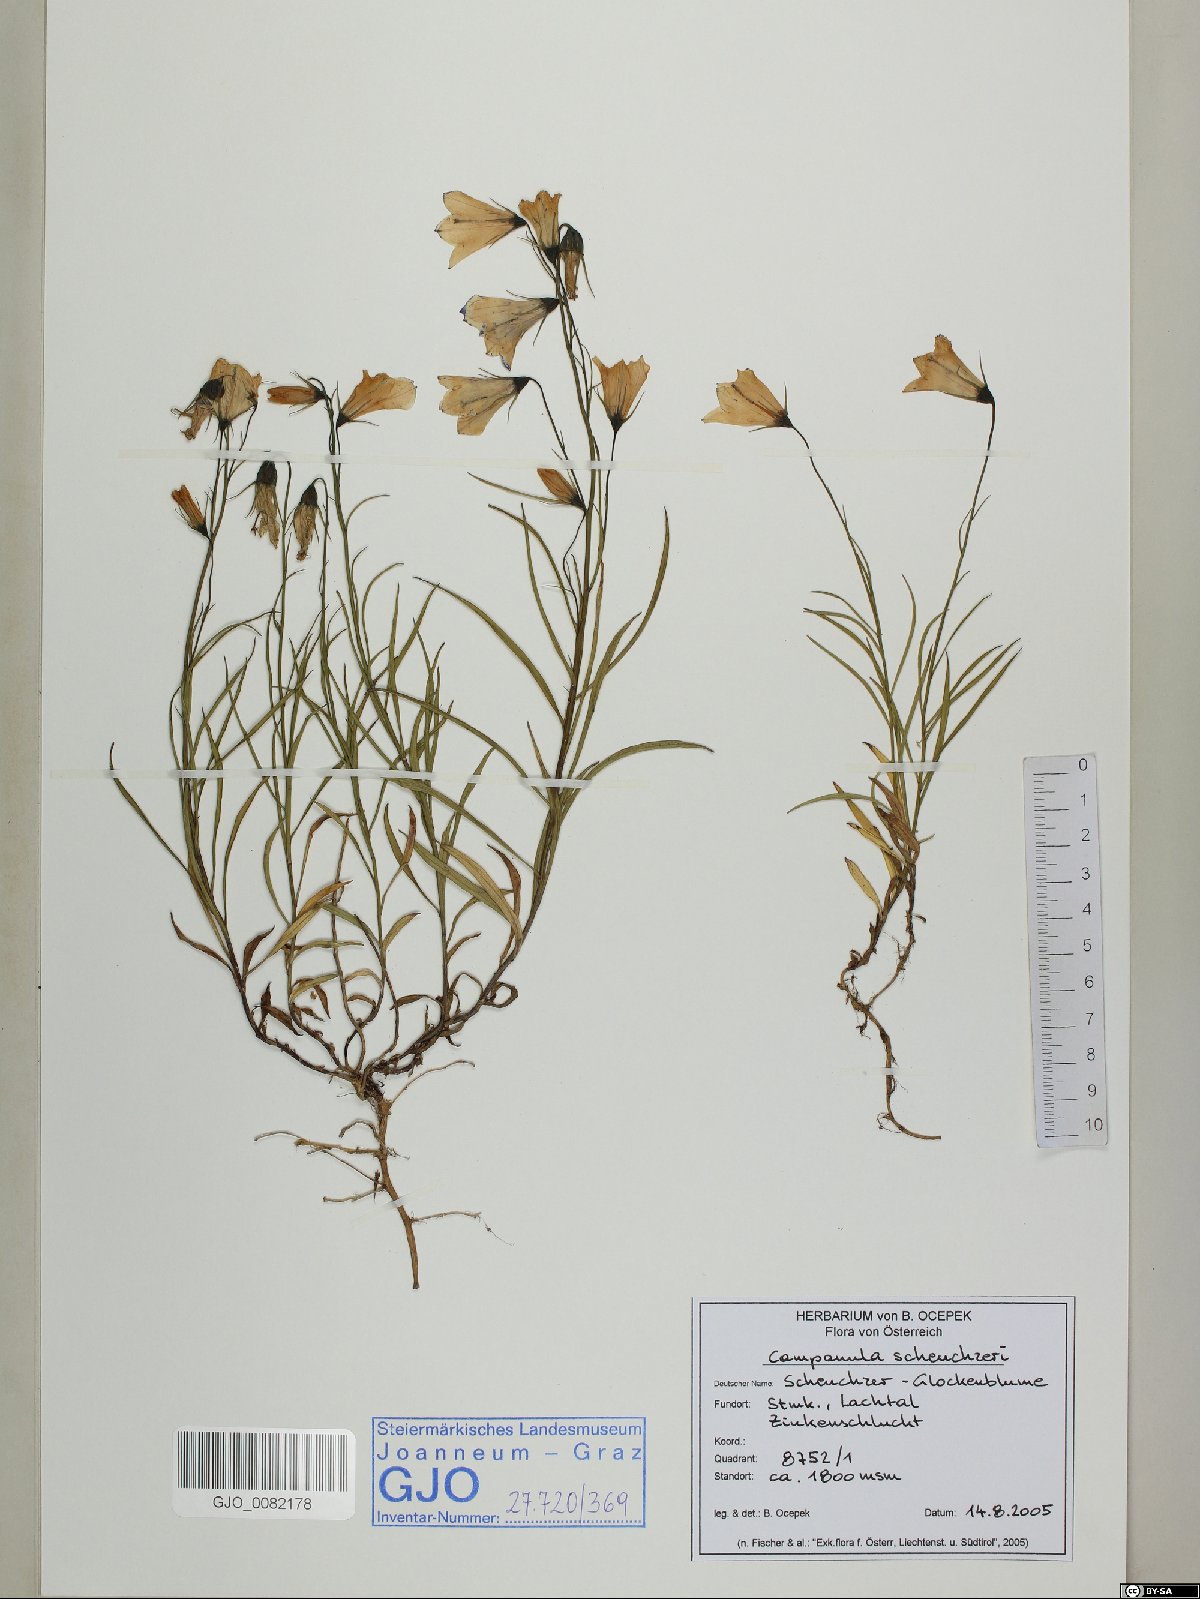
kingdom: Plantae
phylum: Tracheophyta
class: Magnoliopsida
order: Asterales
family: Campanulaceae
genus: Campanula
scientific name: Campanula scheuchzeri
